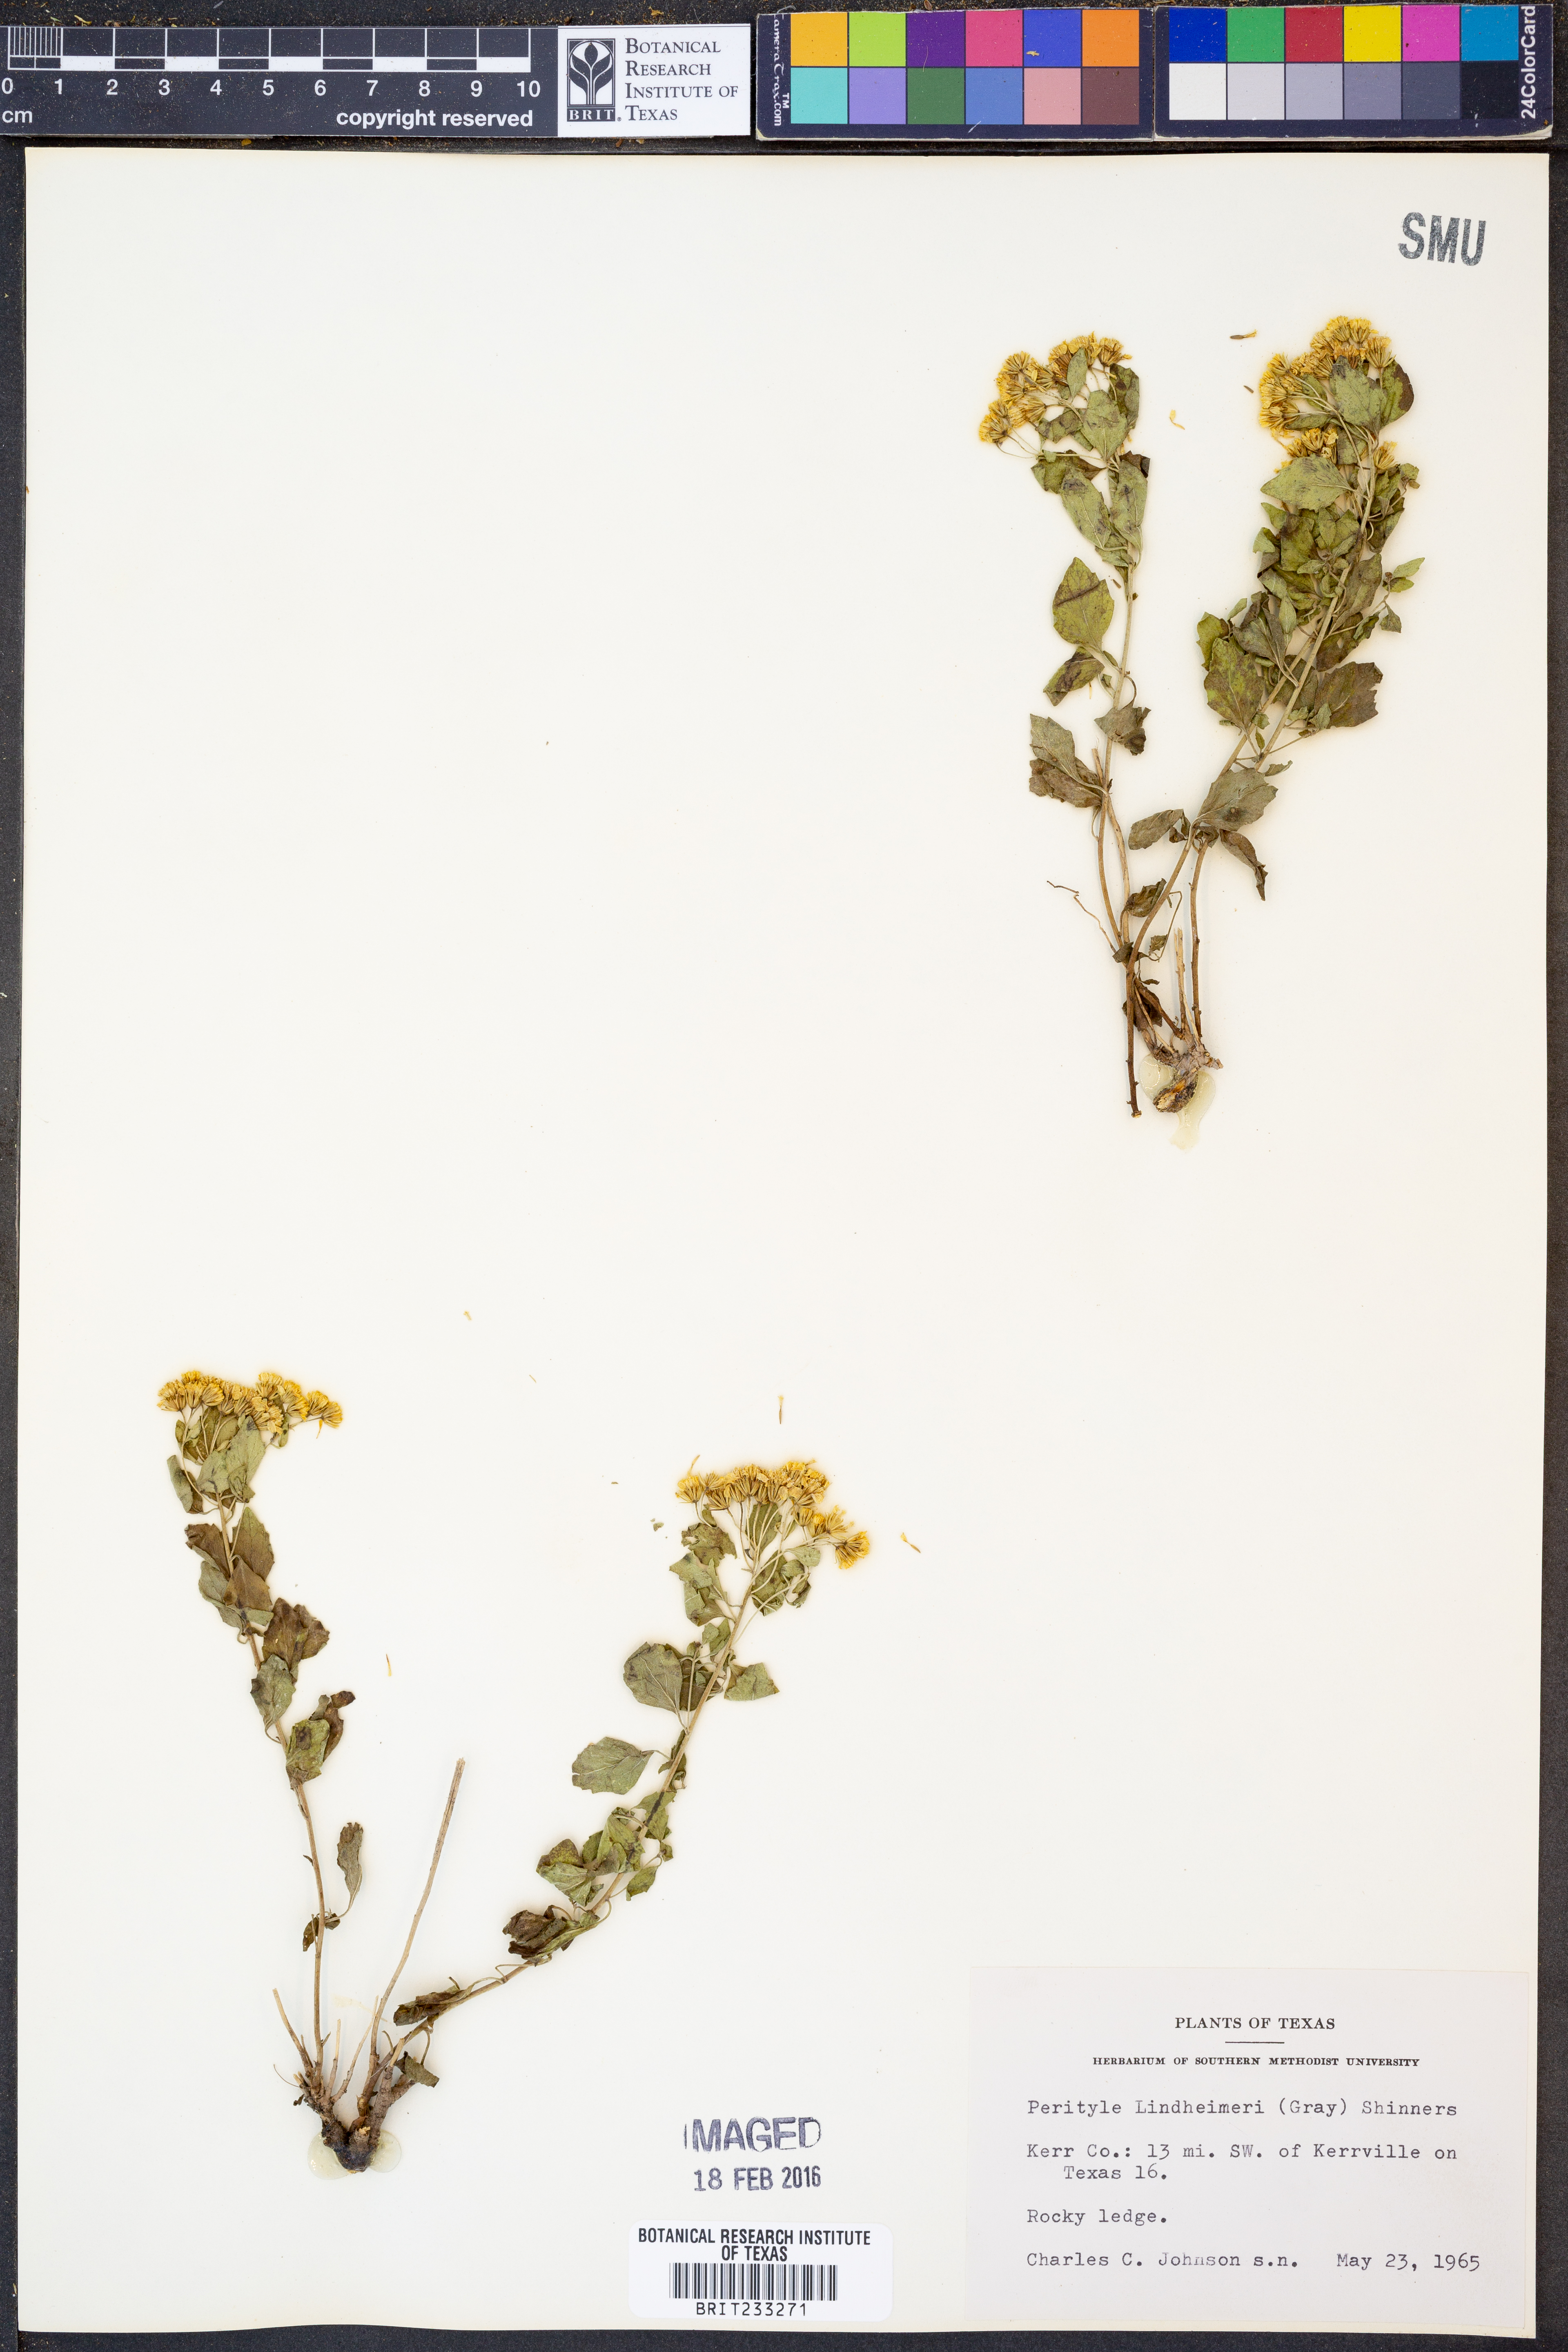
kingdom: Plantae
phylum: Tracheophyta
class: Magnoliopsida
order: Asterales
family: Asteraceae
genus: Laphamia
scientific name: Laphamia lindheimeri
